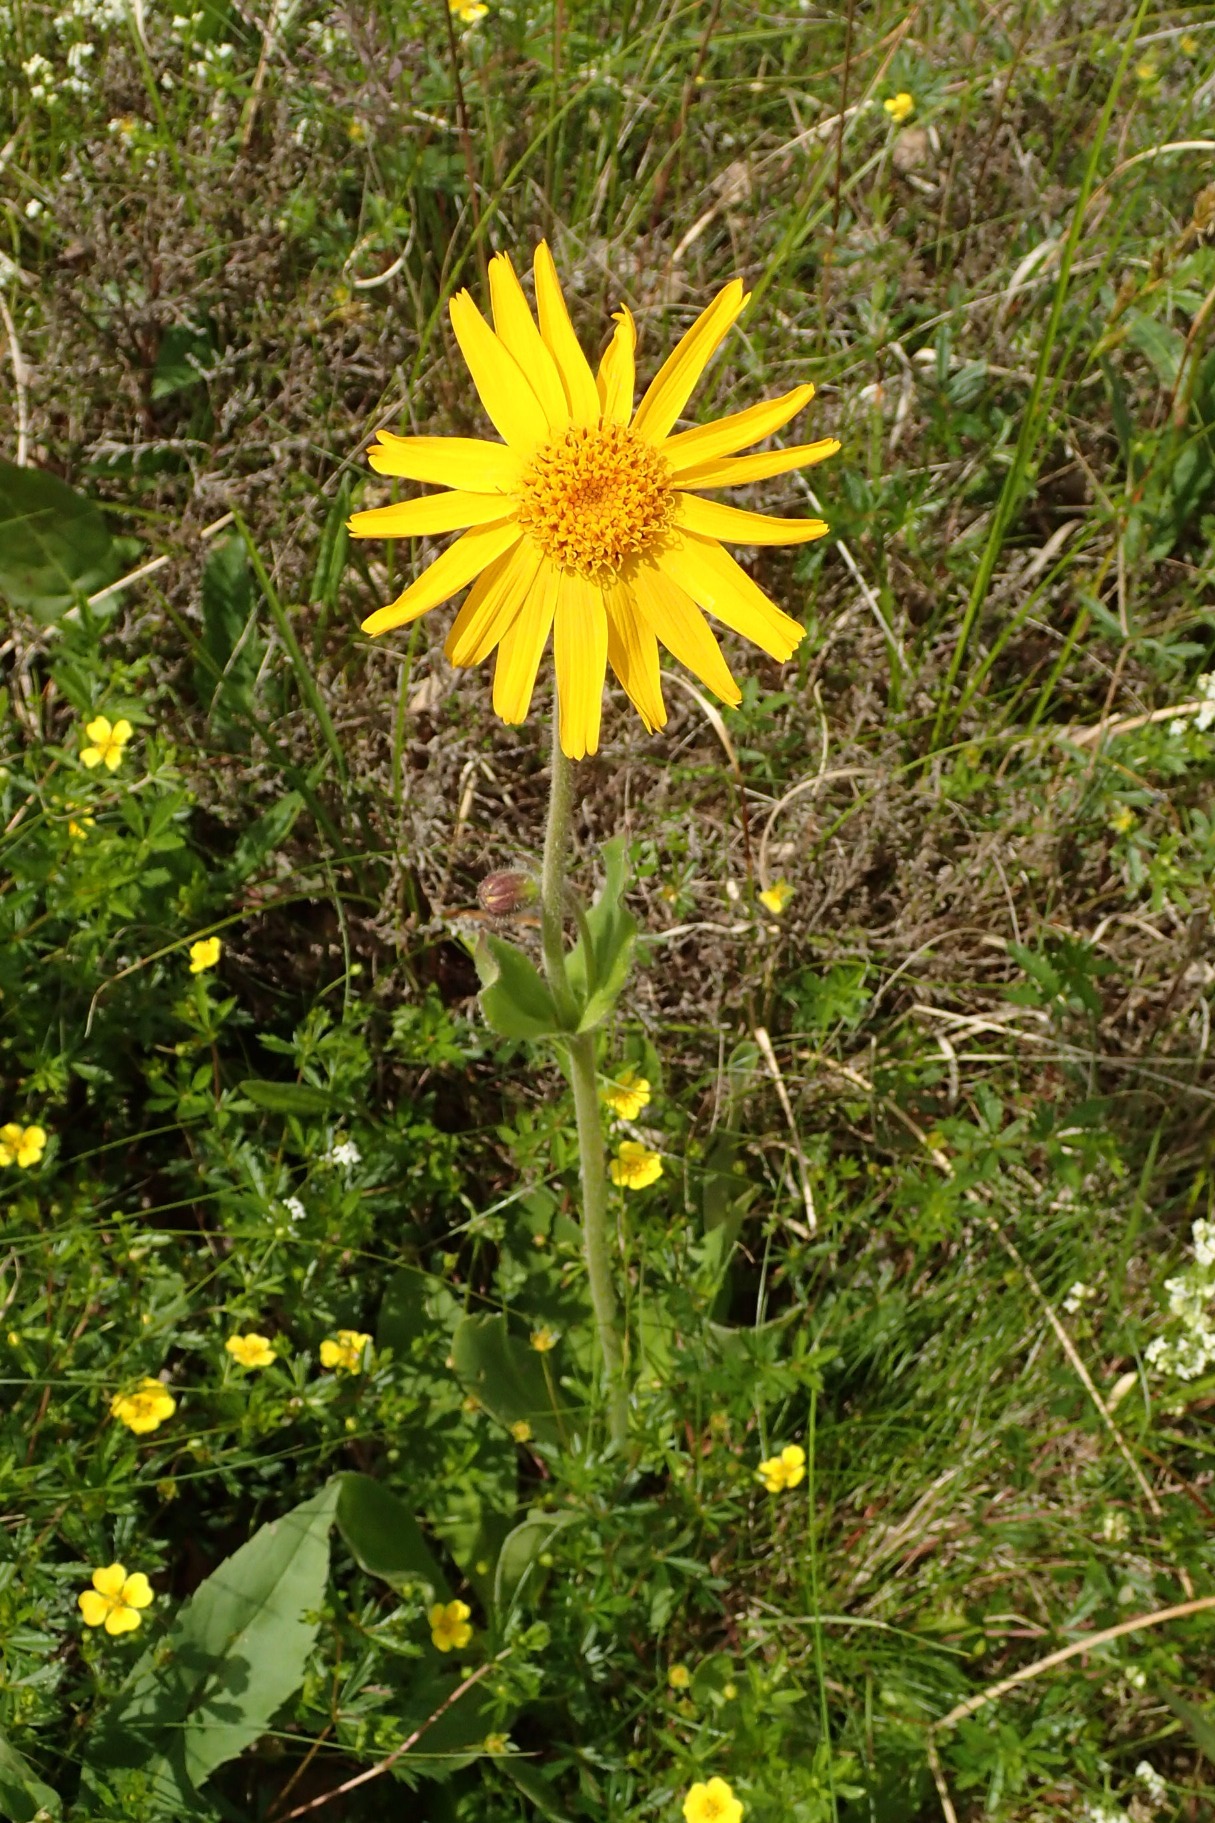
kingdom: Plantae
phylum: Tracheophyta
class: Magnoliopsida
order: Asterales
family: Asteraceae
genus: Arnica
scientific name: Arnica montana
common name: Guldblomme
